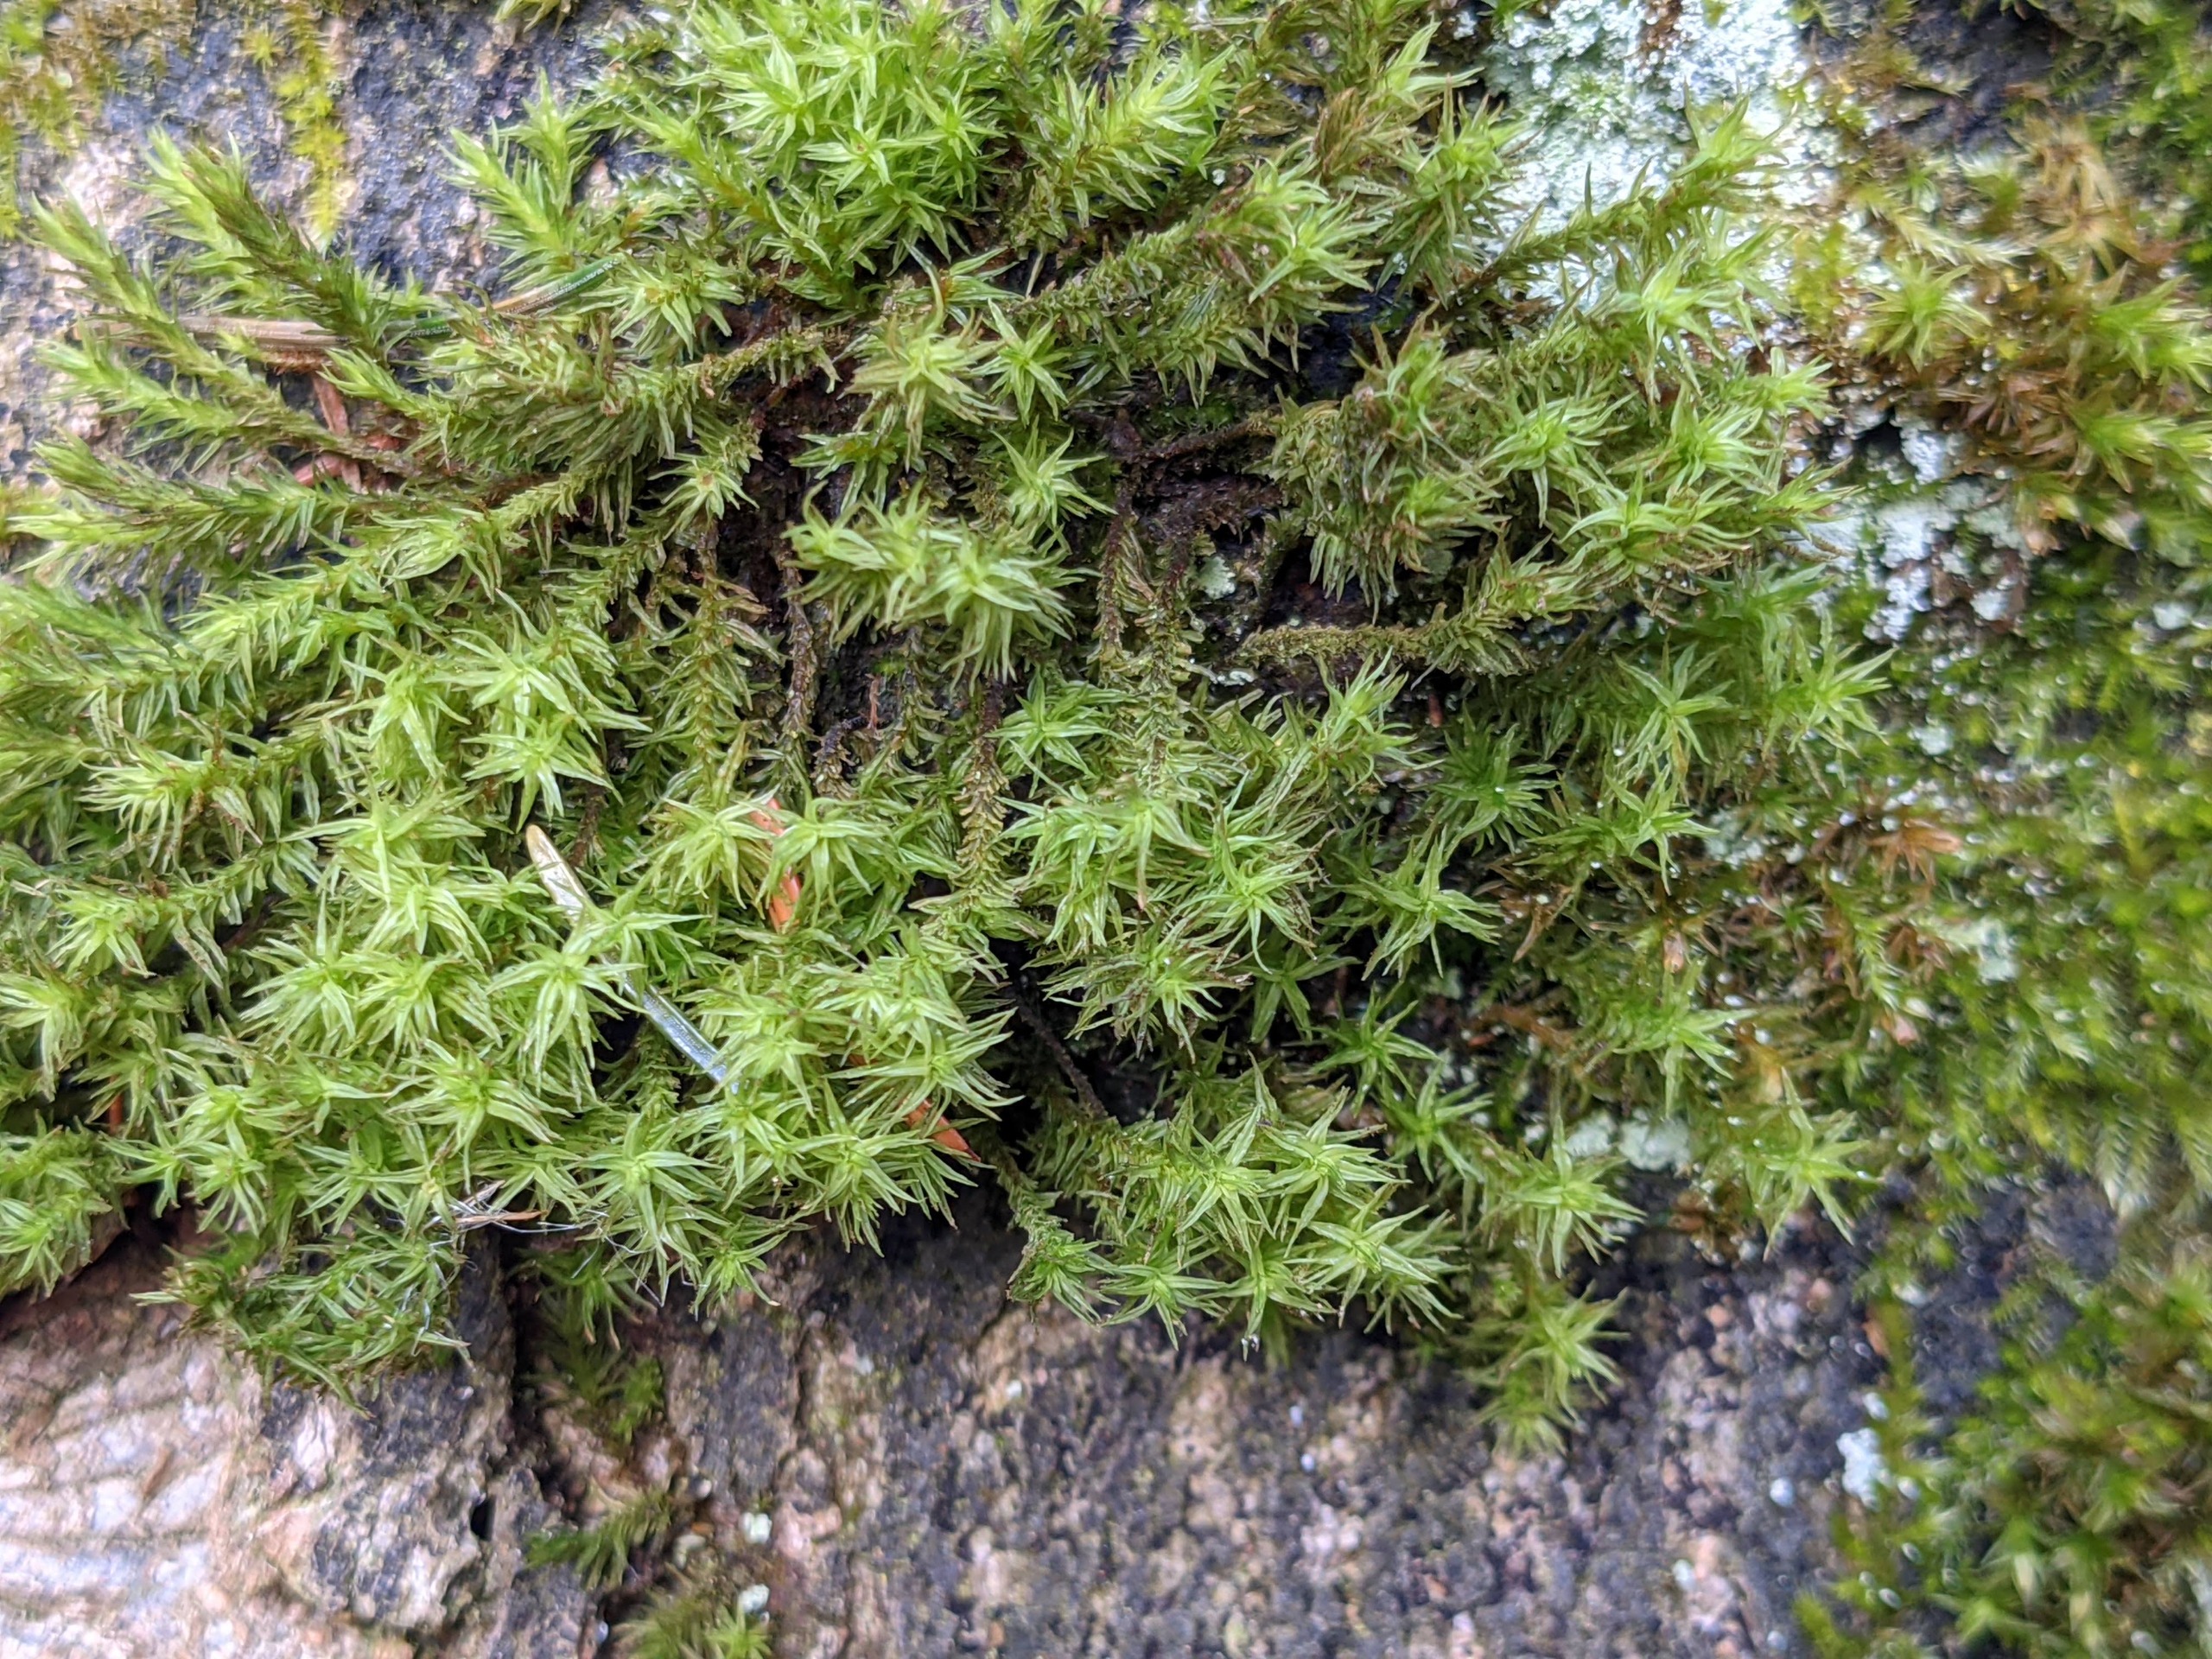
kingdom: Plantae
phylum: Bryophyta
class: Bryopsida
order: Orthotrichales
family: Orthotrichaceae
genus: Pulvigera
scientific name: Pulvigera lyellii
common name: Stor furehætte
